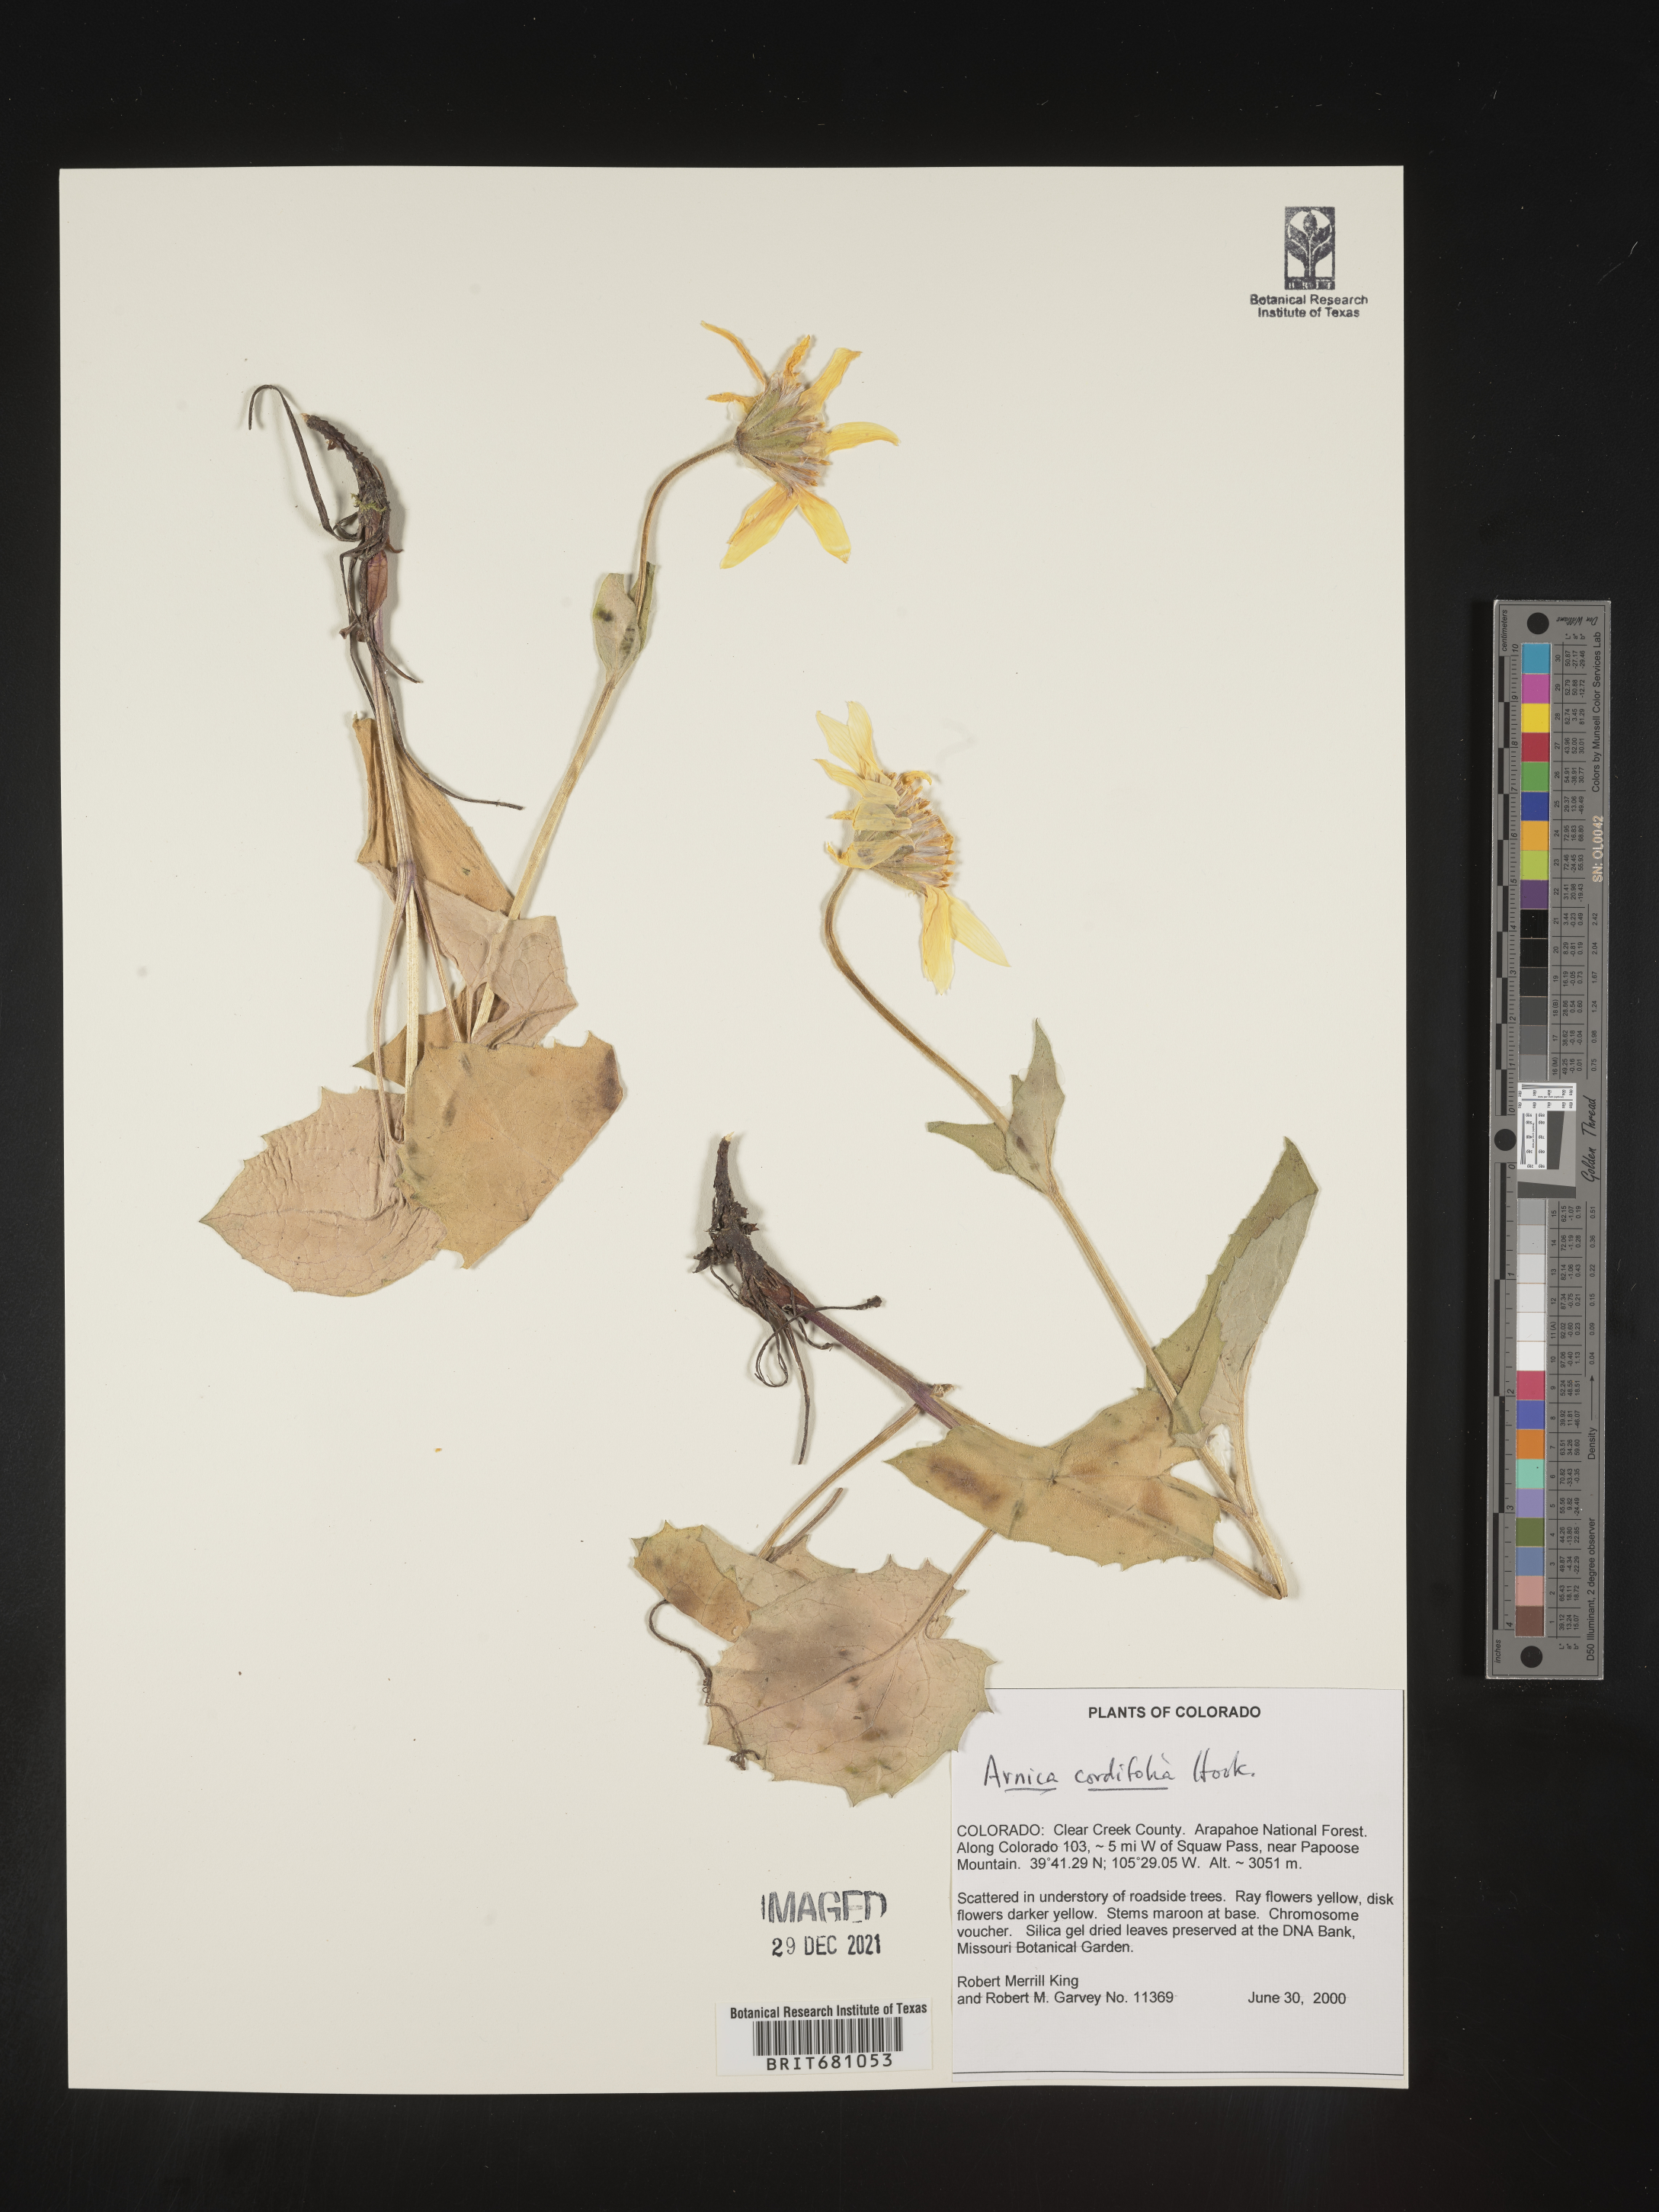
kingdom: Plantae
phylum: Tracheophyta
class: Magnoliopsida
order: Asterales
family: Asteraceae
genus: Arnica
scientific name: Arnica cordifolia
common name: Heart-leaf arnica
